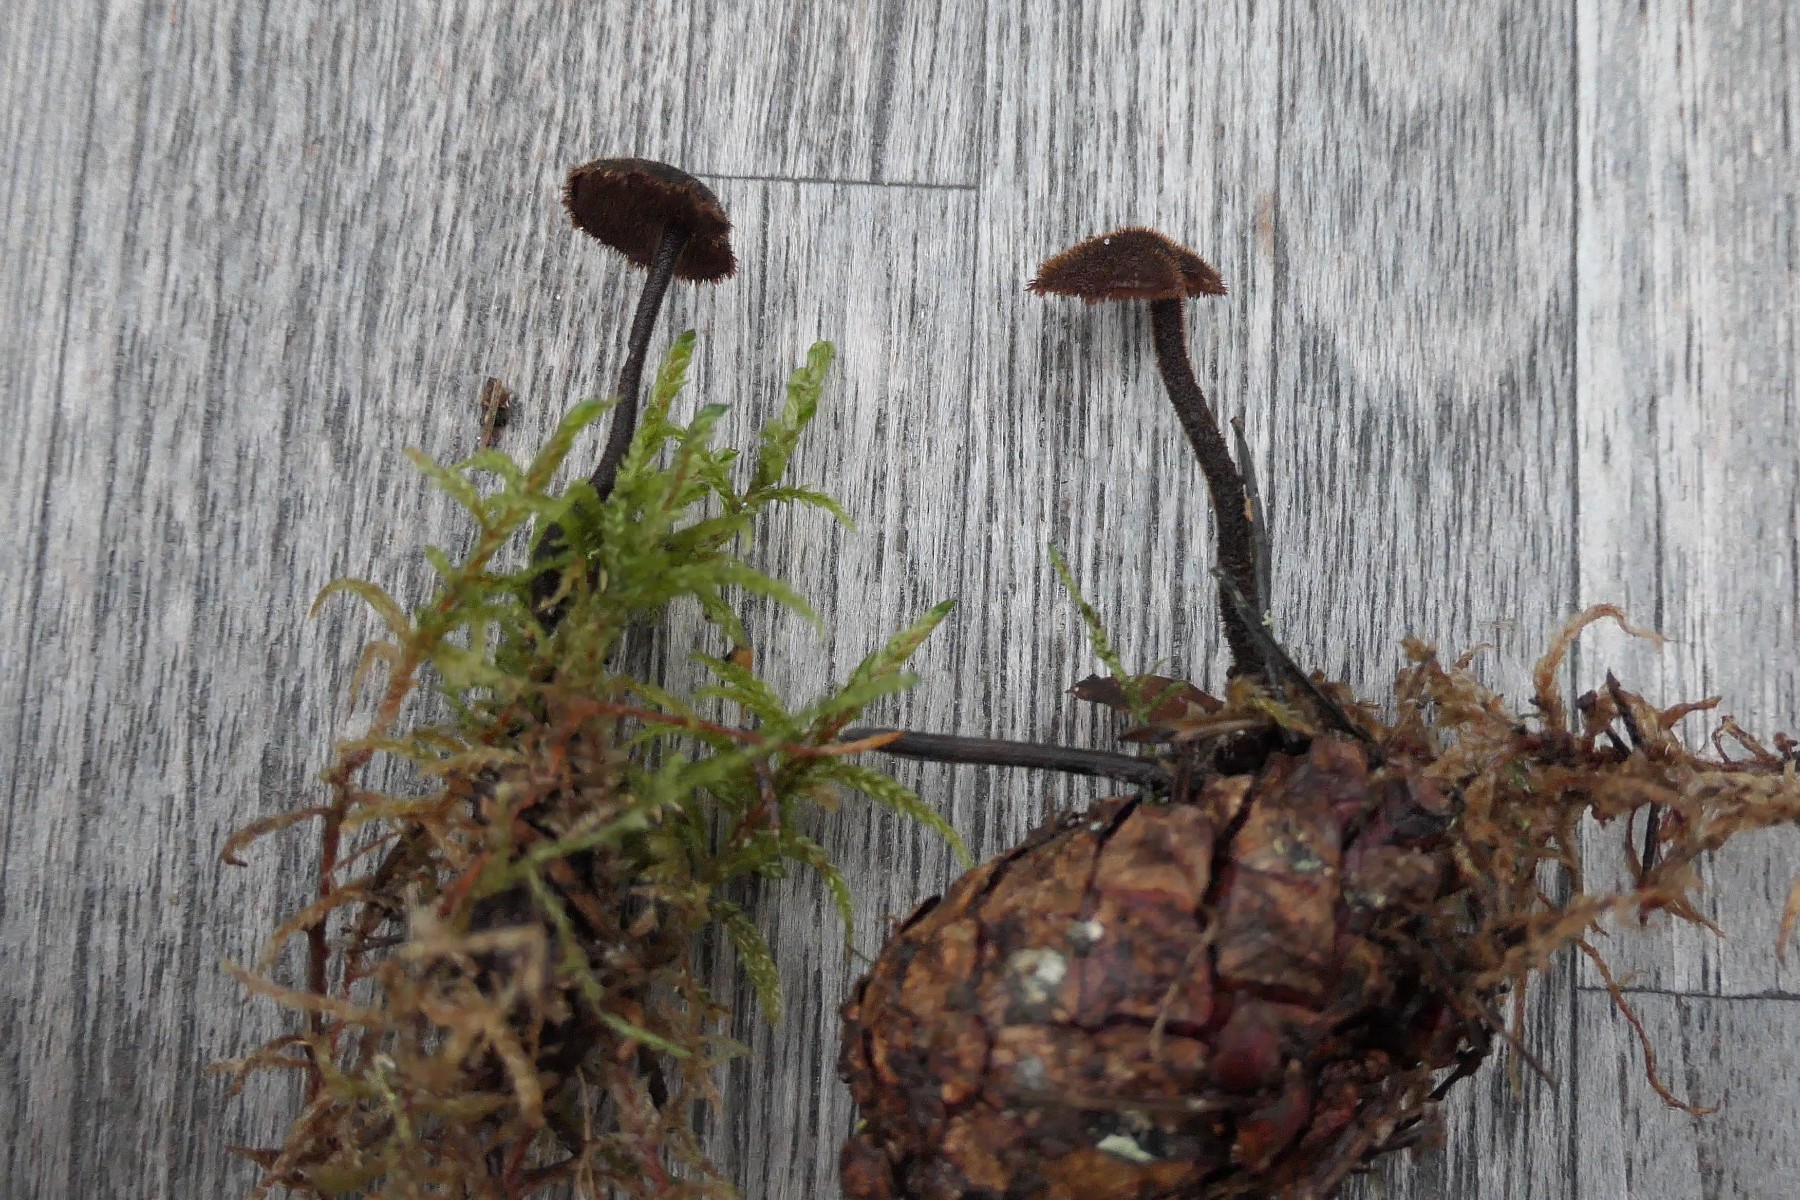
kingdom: Fungi
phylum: Basidiomycota
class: Agaricomycetes
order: Russulales
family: Auriscalpiaceae
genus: Auriscalpium
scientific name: Auriscalpium vulgare
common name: koglepigsvamp
